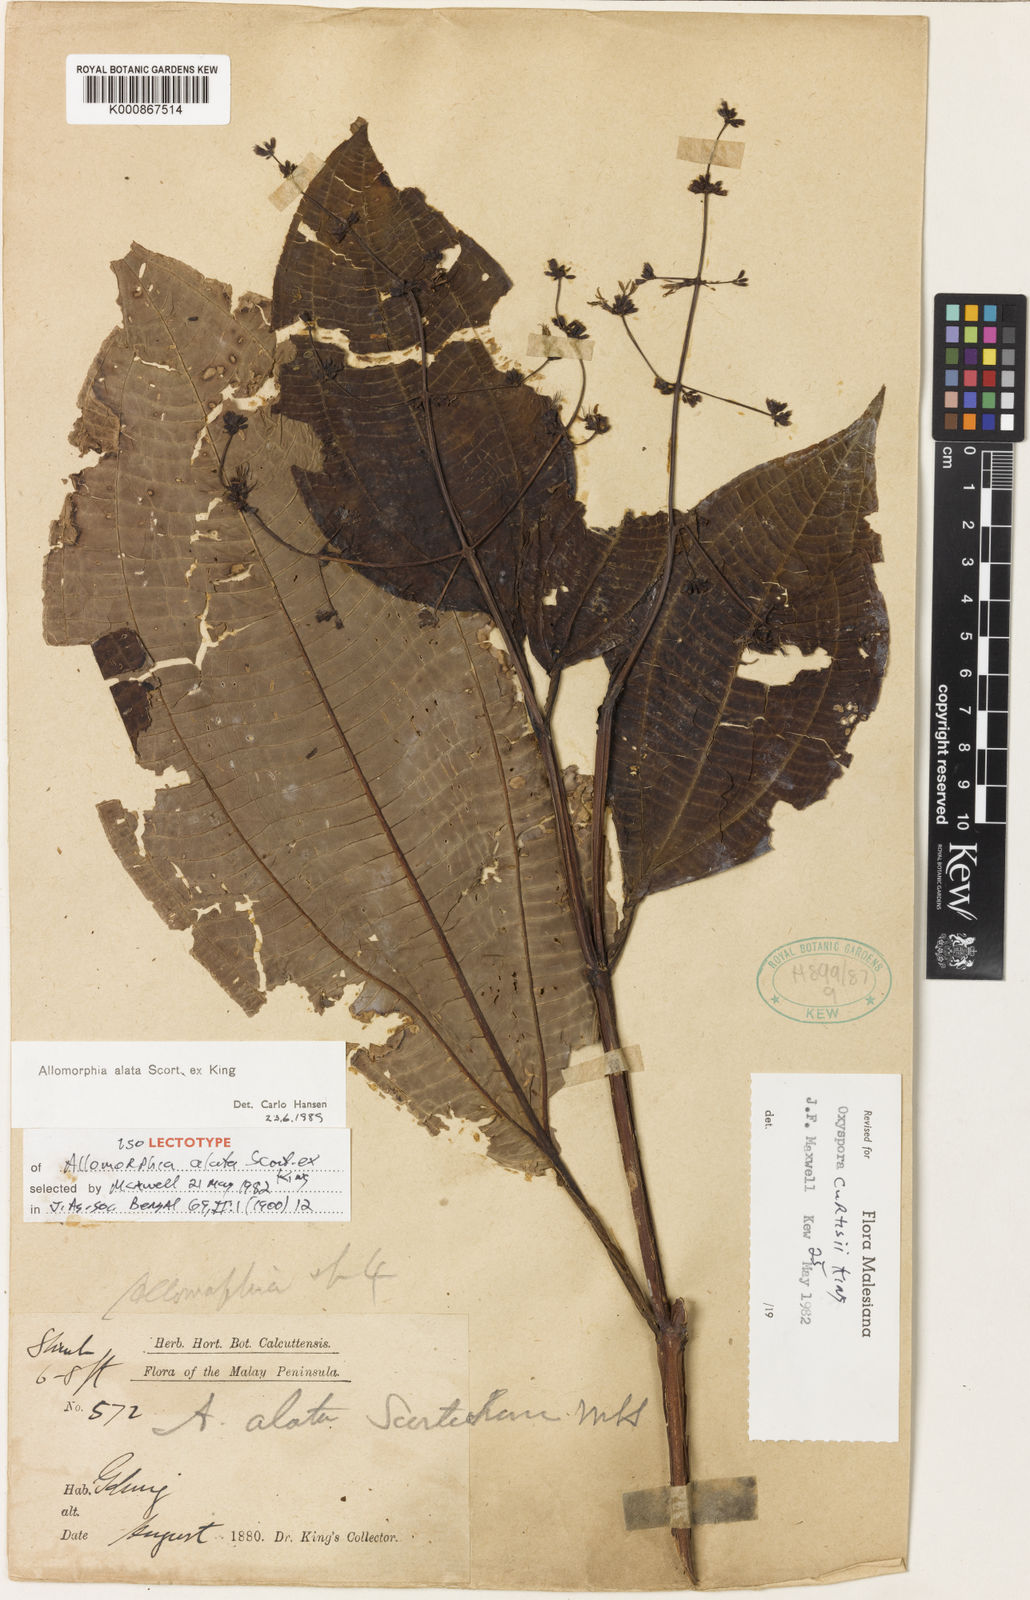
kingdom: Plantae
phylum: Tracheophyta
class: Magnoliopsida
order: Myrtales
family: Melastomataceae
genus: Allomorphia
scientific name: Allomorphia curtisii
